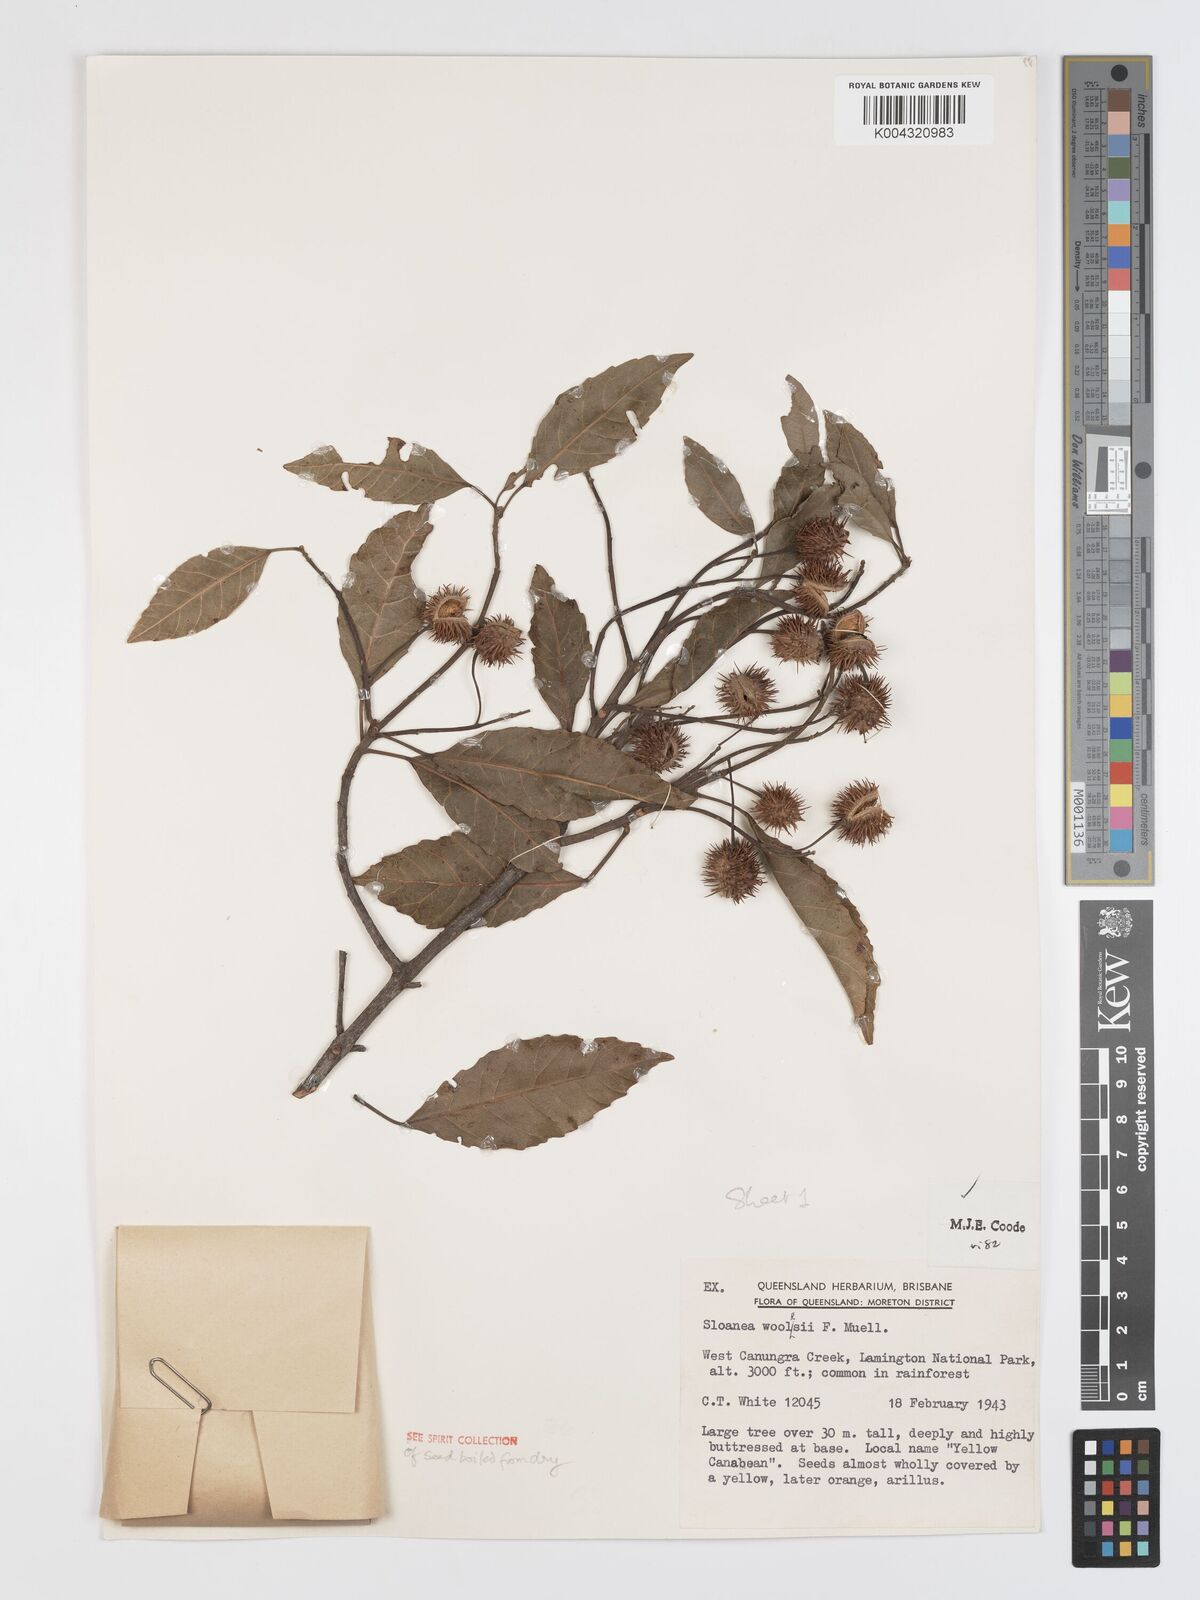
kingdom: Plantae
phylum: Tracheophyta
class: Magnoliopsida
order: Oxalidales
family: Elaeocarpaceae
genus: Sloanea
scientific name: Sloanea woollsii
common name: Yellow carabeen
